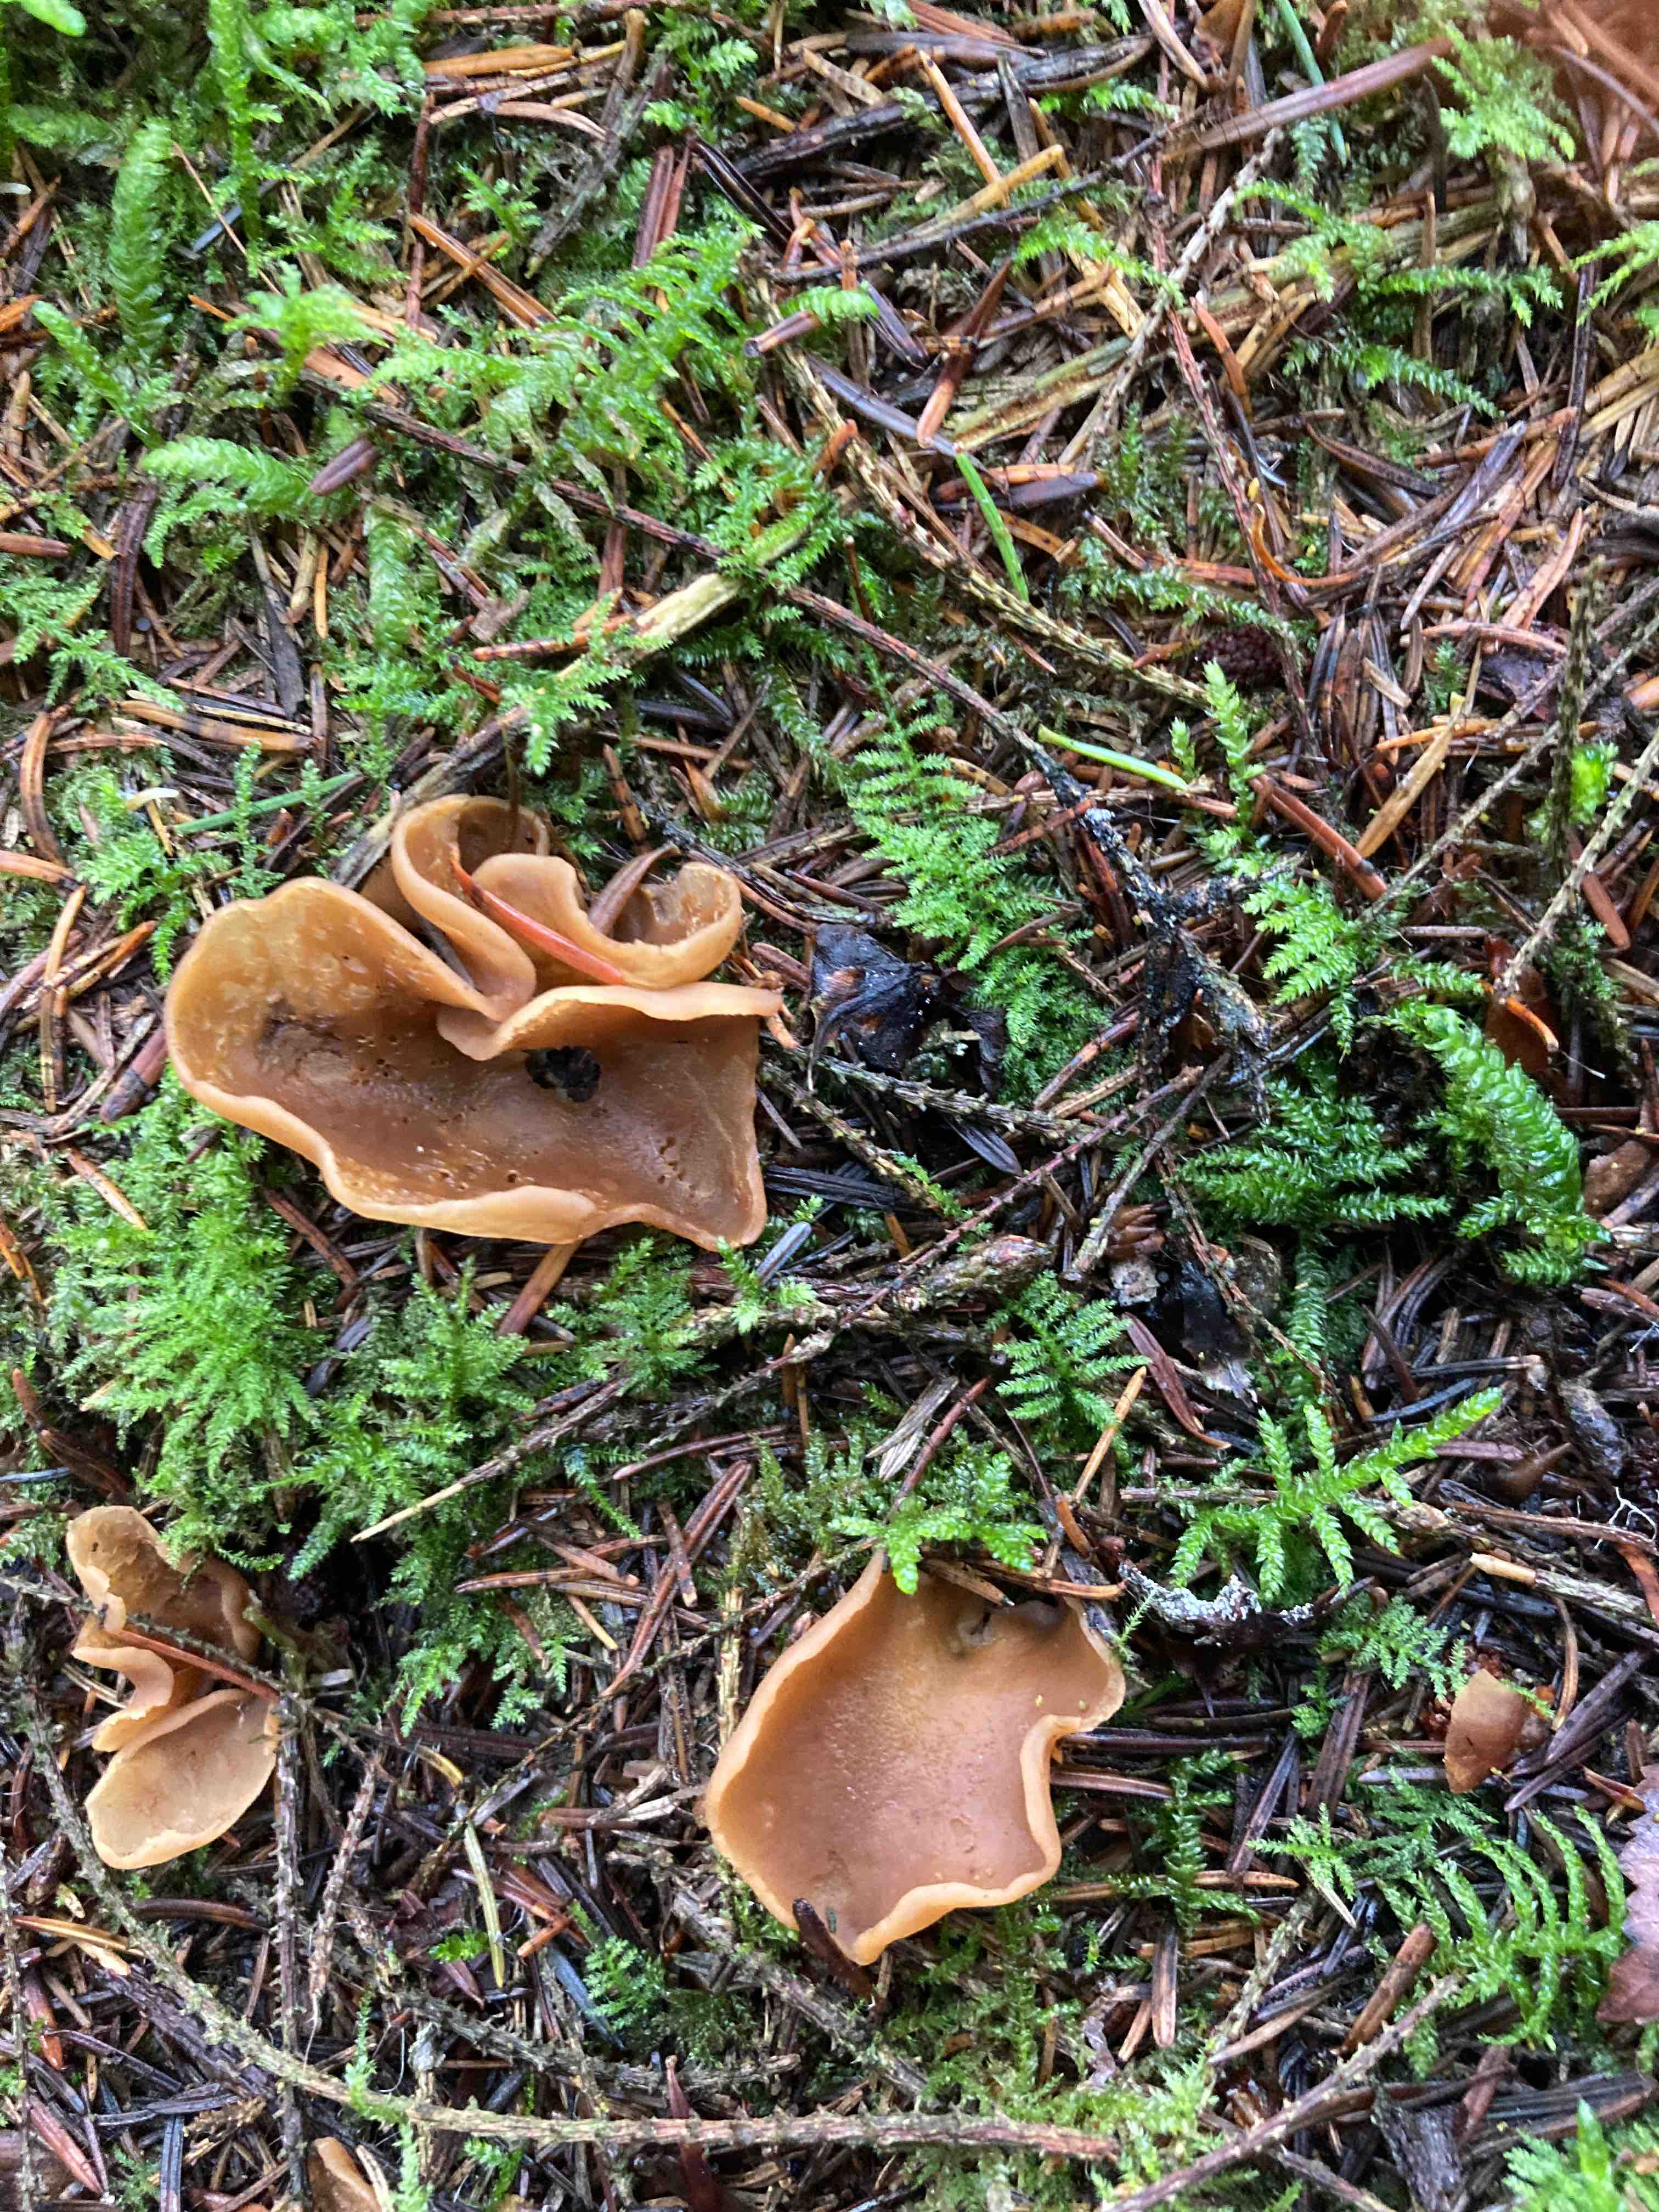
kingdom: Fungi
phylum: Ascomycota
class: Pezizomycetes
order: Pezizales
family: Otideaceae
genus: Otidea
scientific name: Otidea
